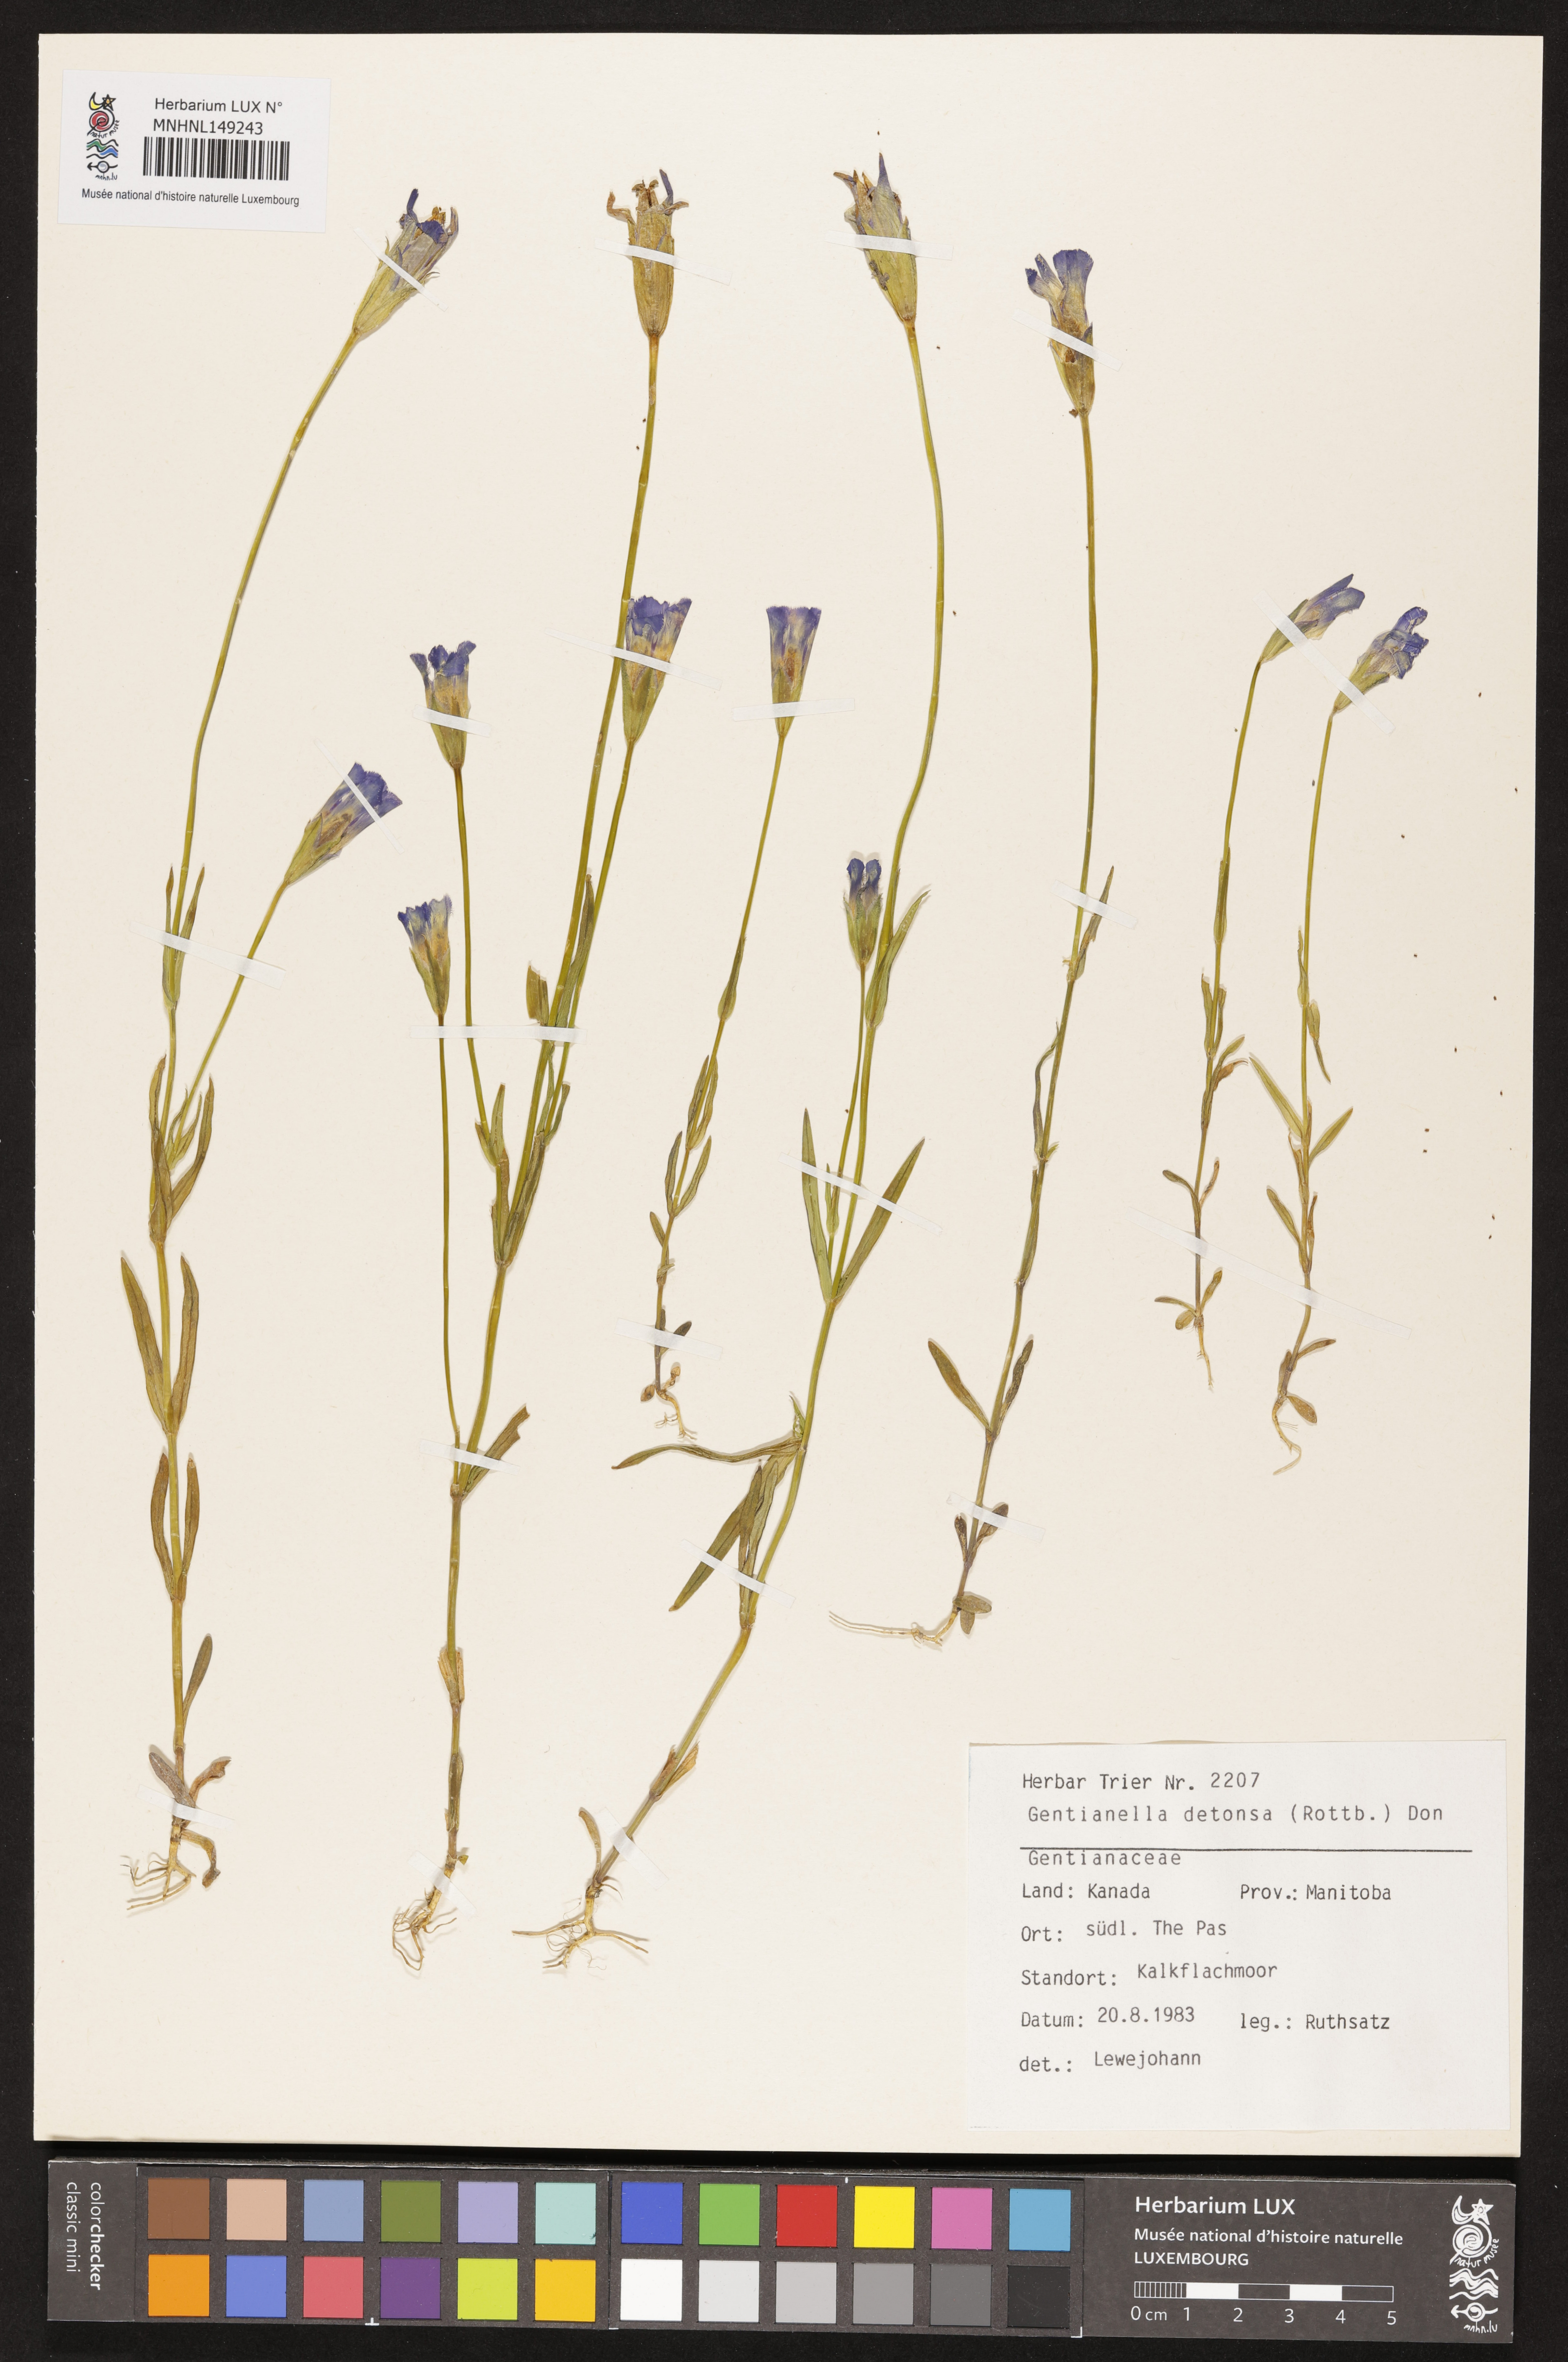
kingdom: Plantae
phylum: Tracheophyta
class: Magnoliopsida
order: Gentianales
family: Gentianaceae
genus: Gentianopsis
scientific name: Gentianopsis detonsa
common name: Fringed-gentian
